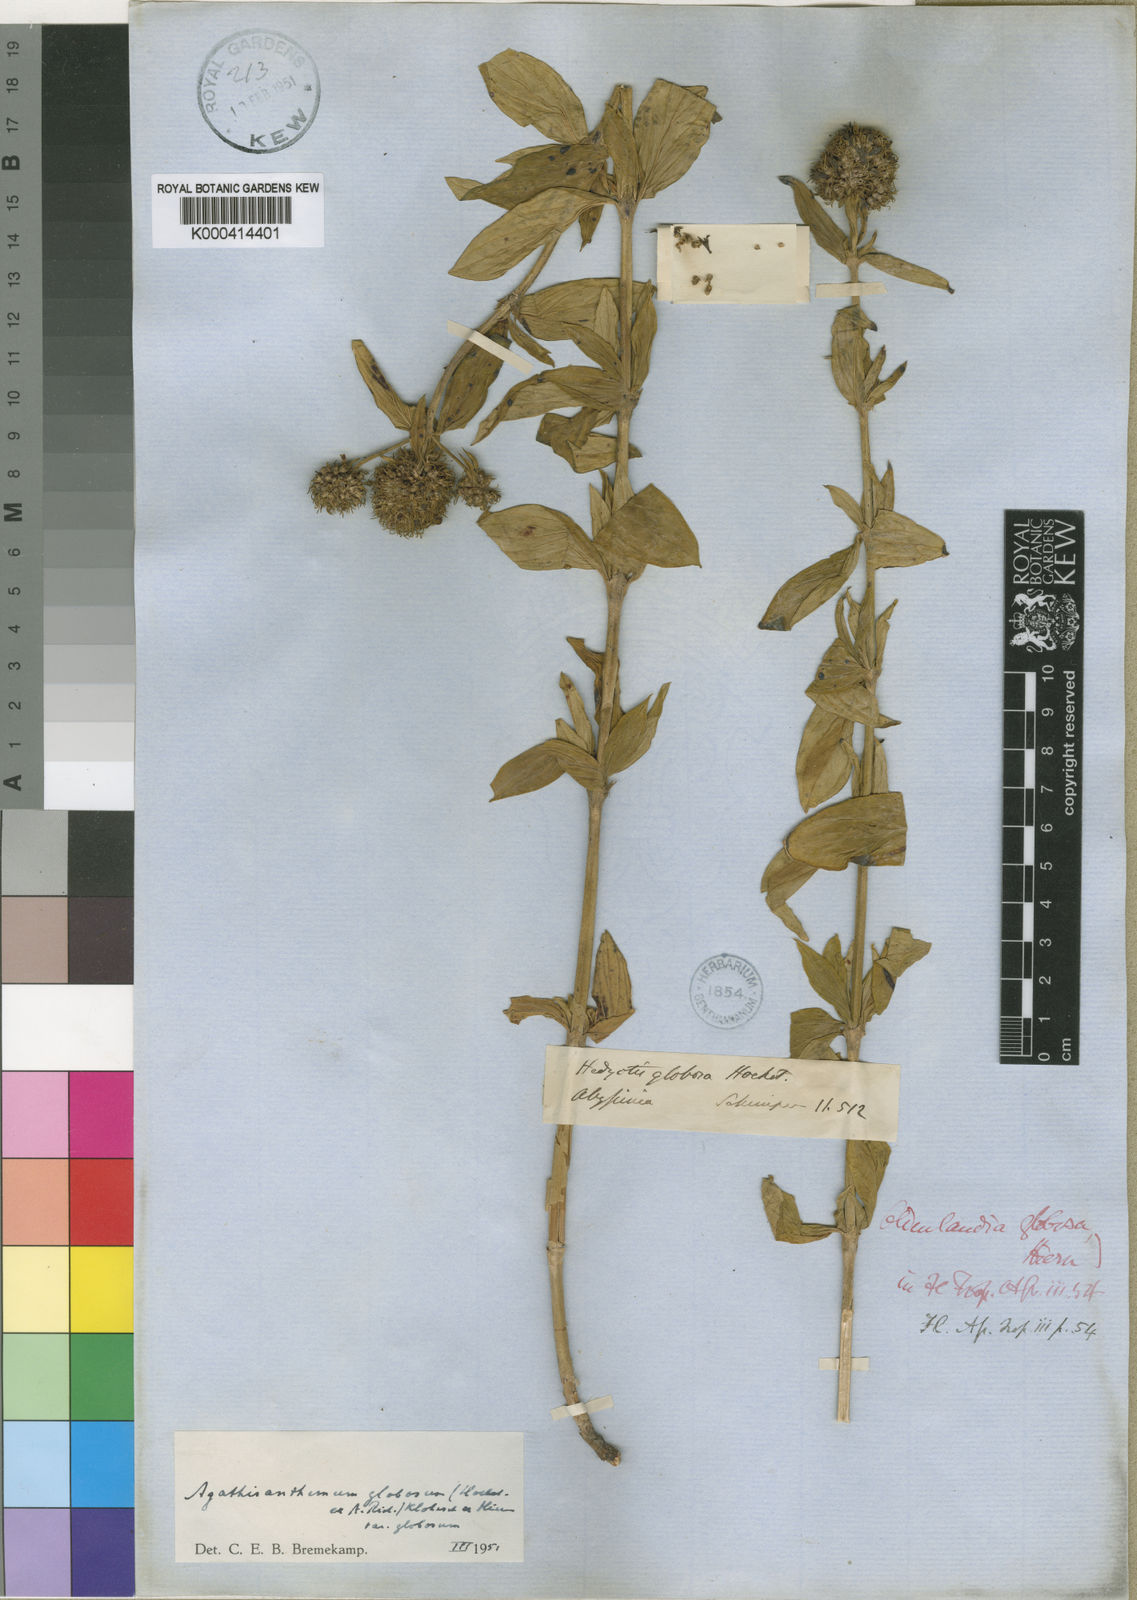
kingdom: Plantae
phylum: Tracheophyta
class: Magnoliopsida
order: Gentianales
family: Rubiaceae
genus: Agathisanthemum
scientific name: Agathisanthemum globosum
